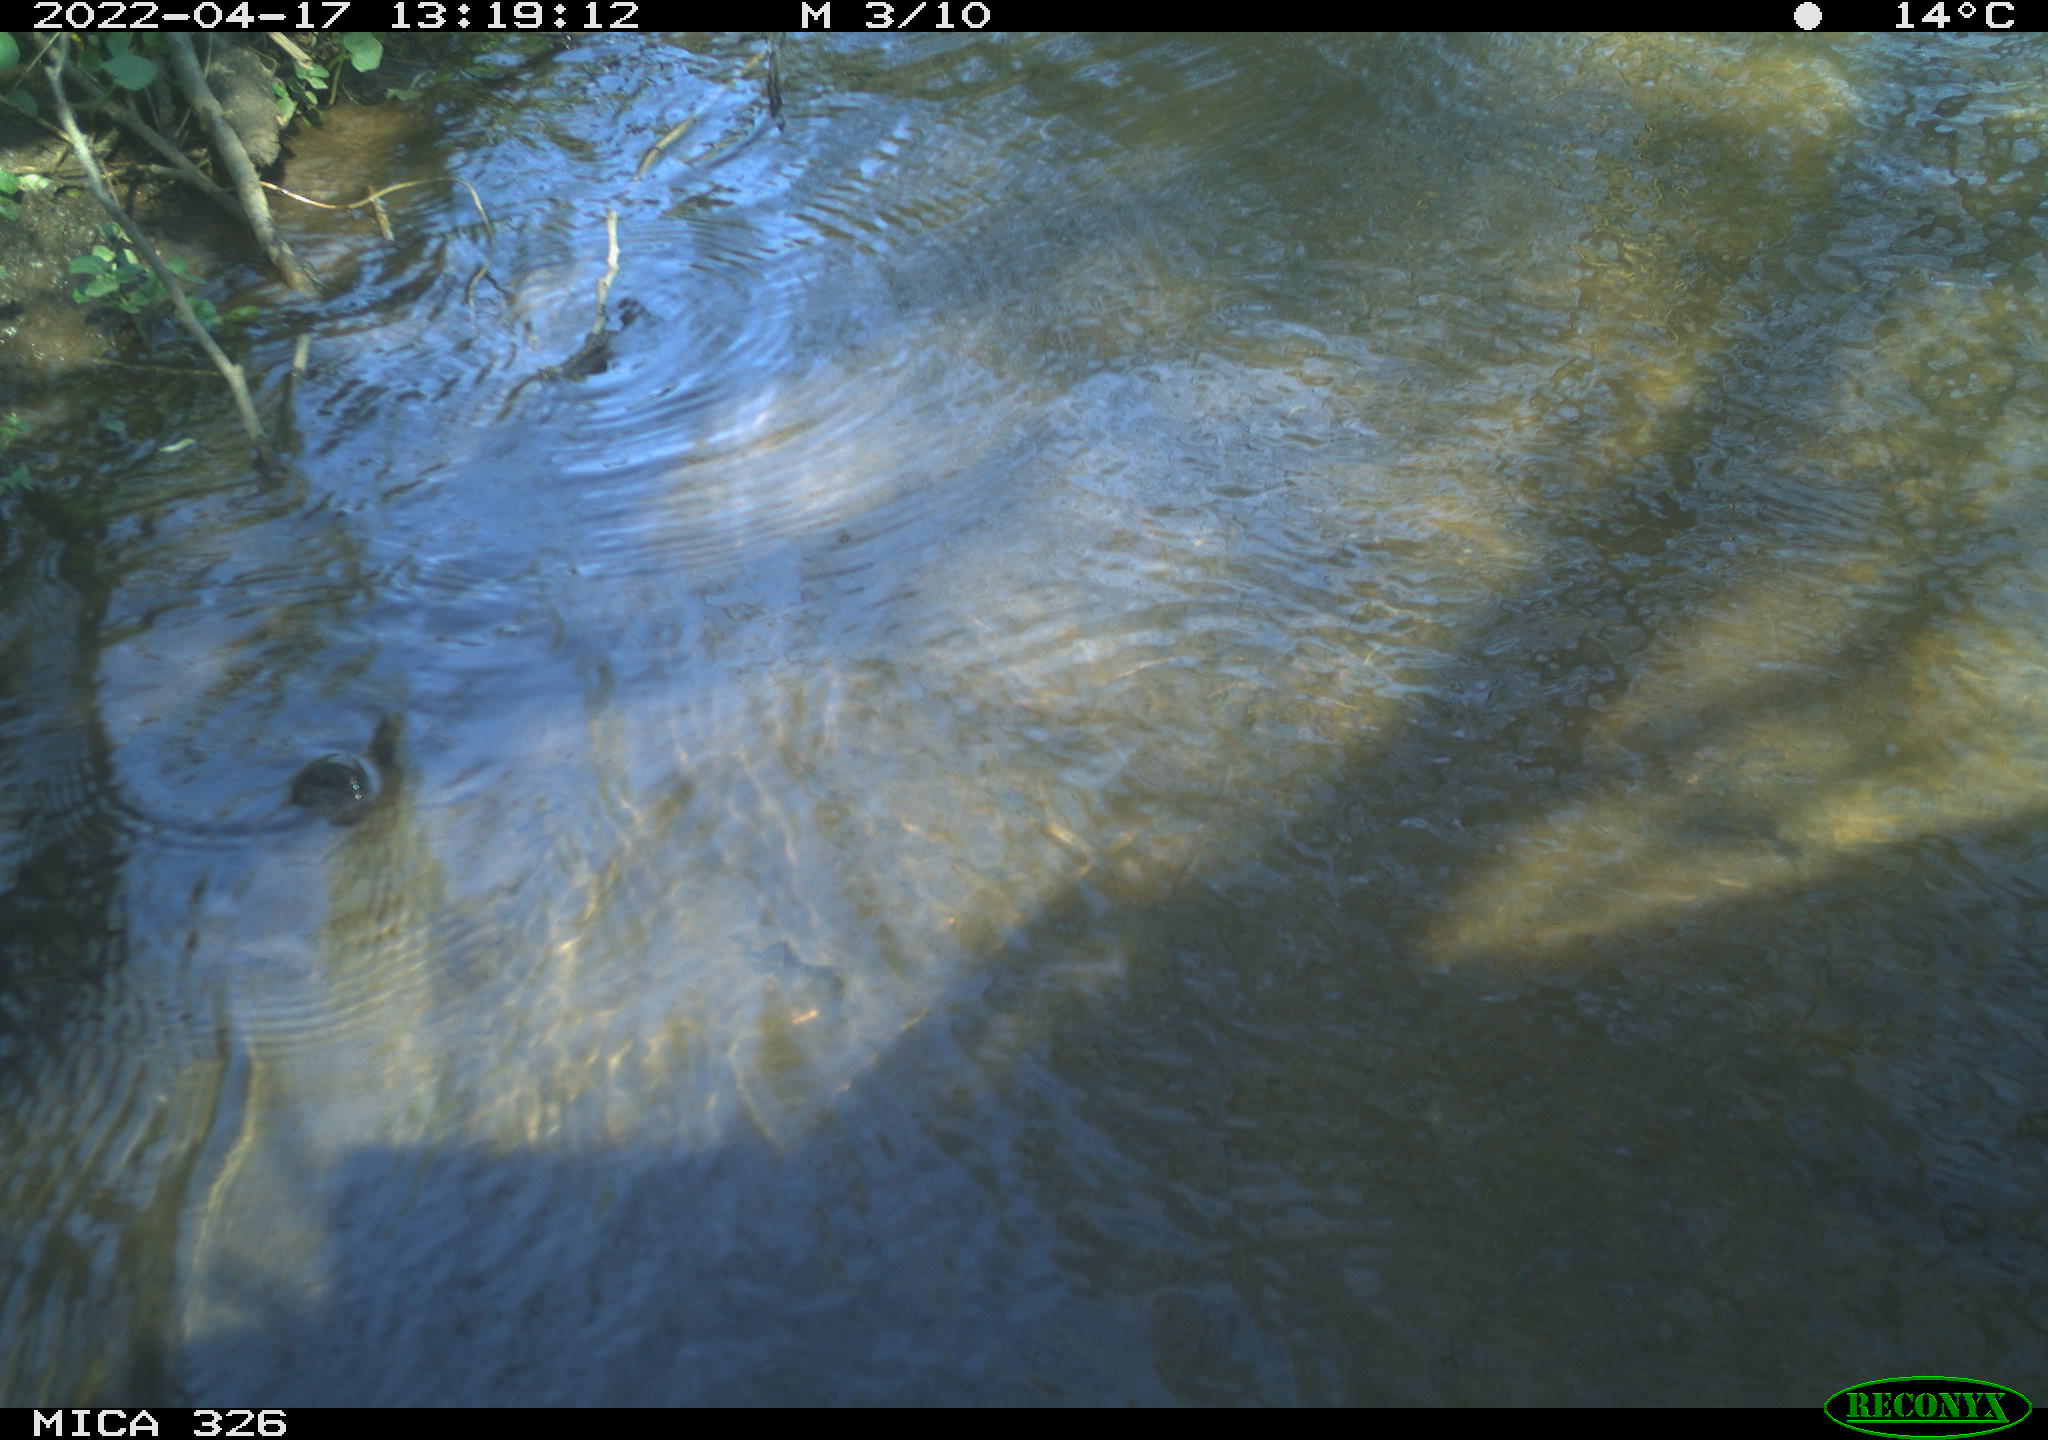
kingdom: Animalia
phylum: Chordata
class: Mammalia
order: Rodentia
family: Cricetidae
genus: Ondatra
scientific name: Ondatra zibethicus
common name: Muskrat
